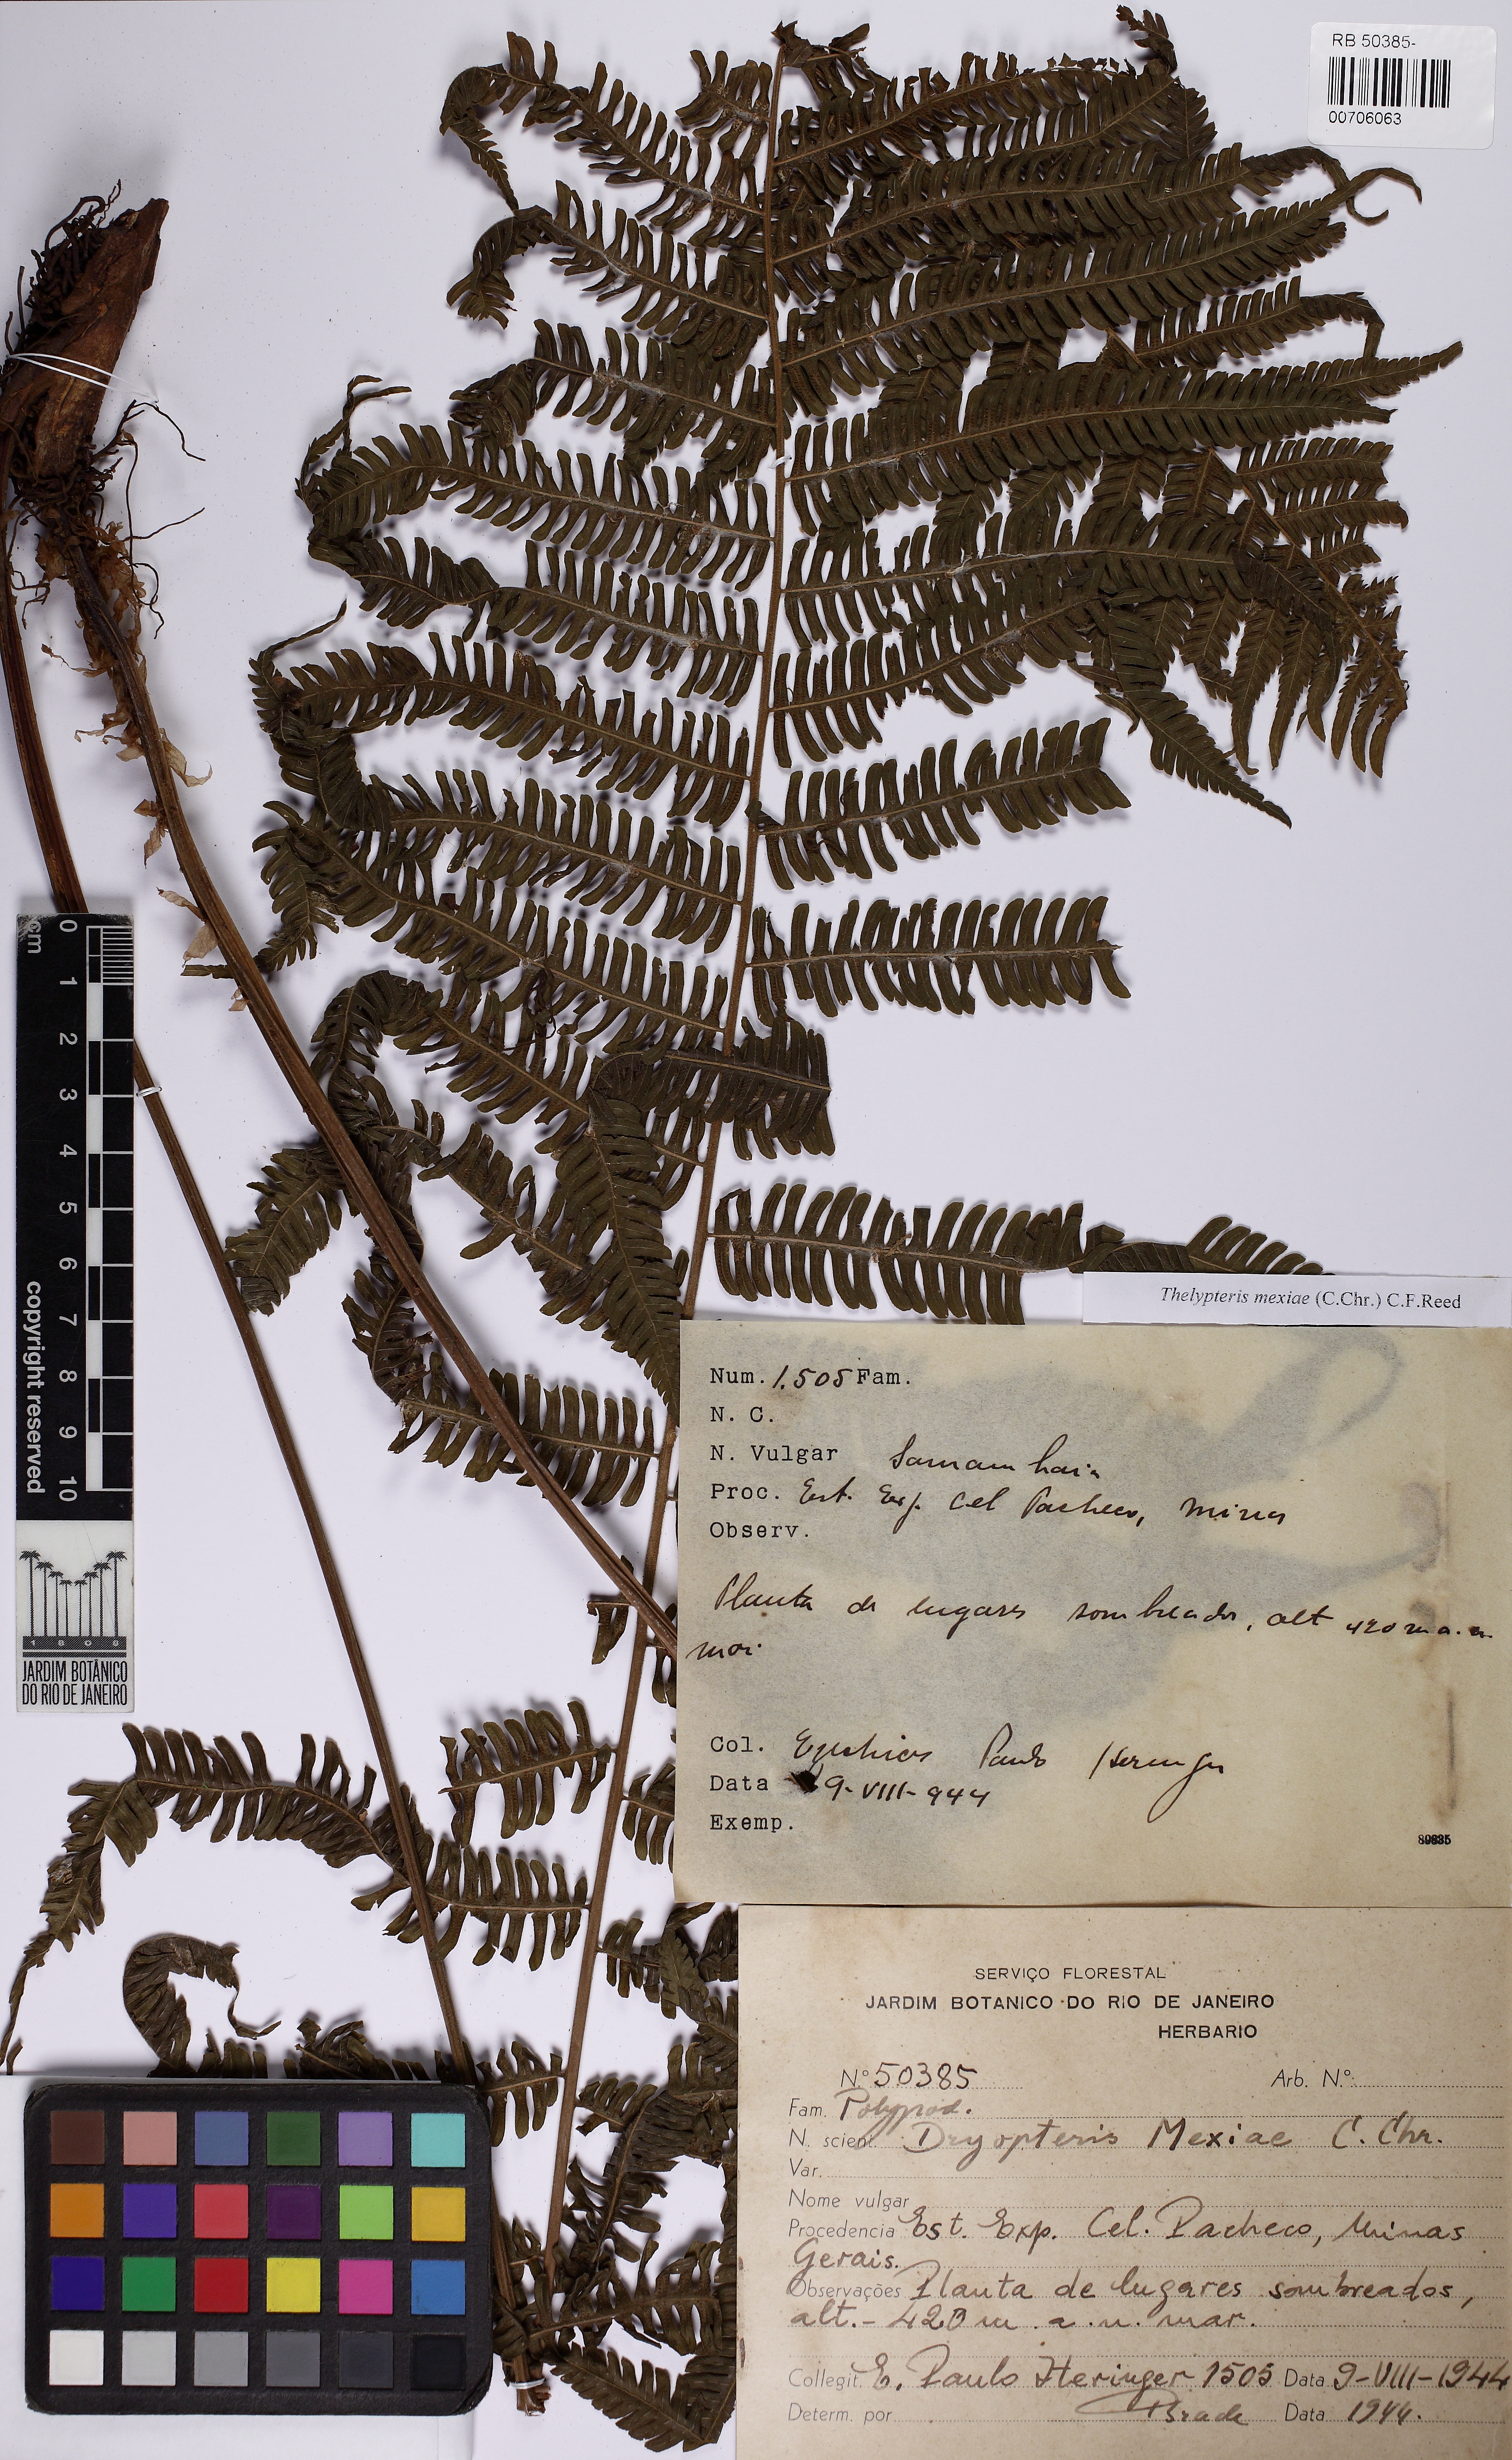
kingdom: Plantae
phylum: Tracheophyta
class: Polypodiopsida
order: Polypodiales
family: Thelypteridaceae
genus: Steiropteris
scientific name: Steiropteris mexiae
